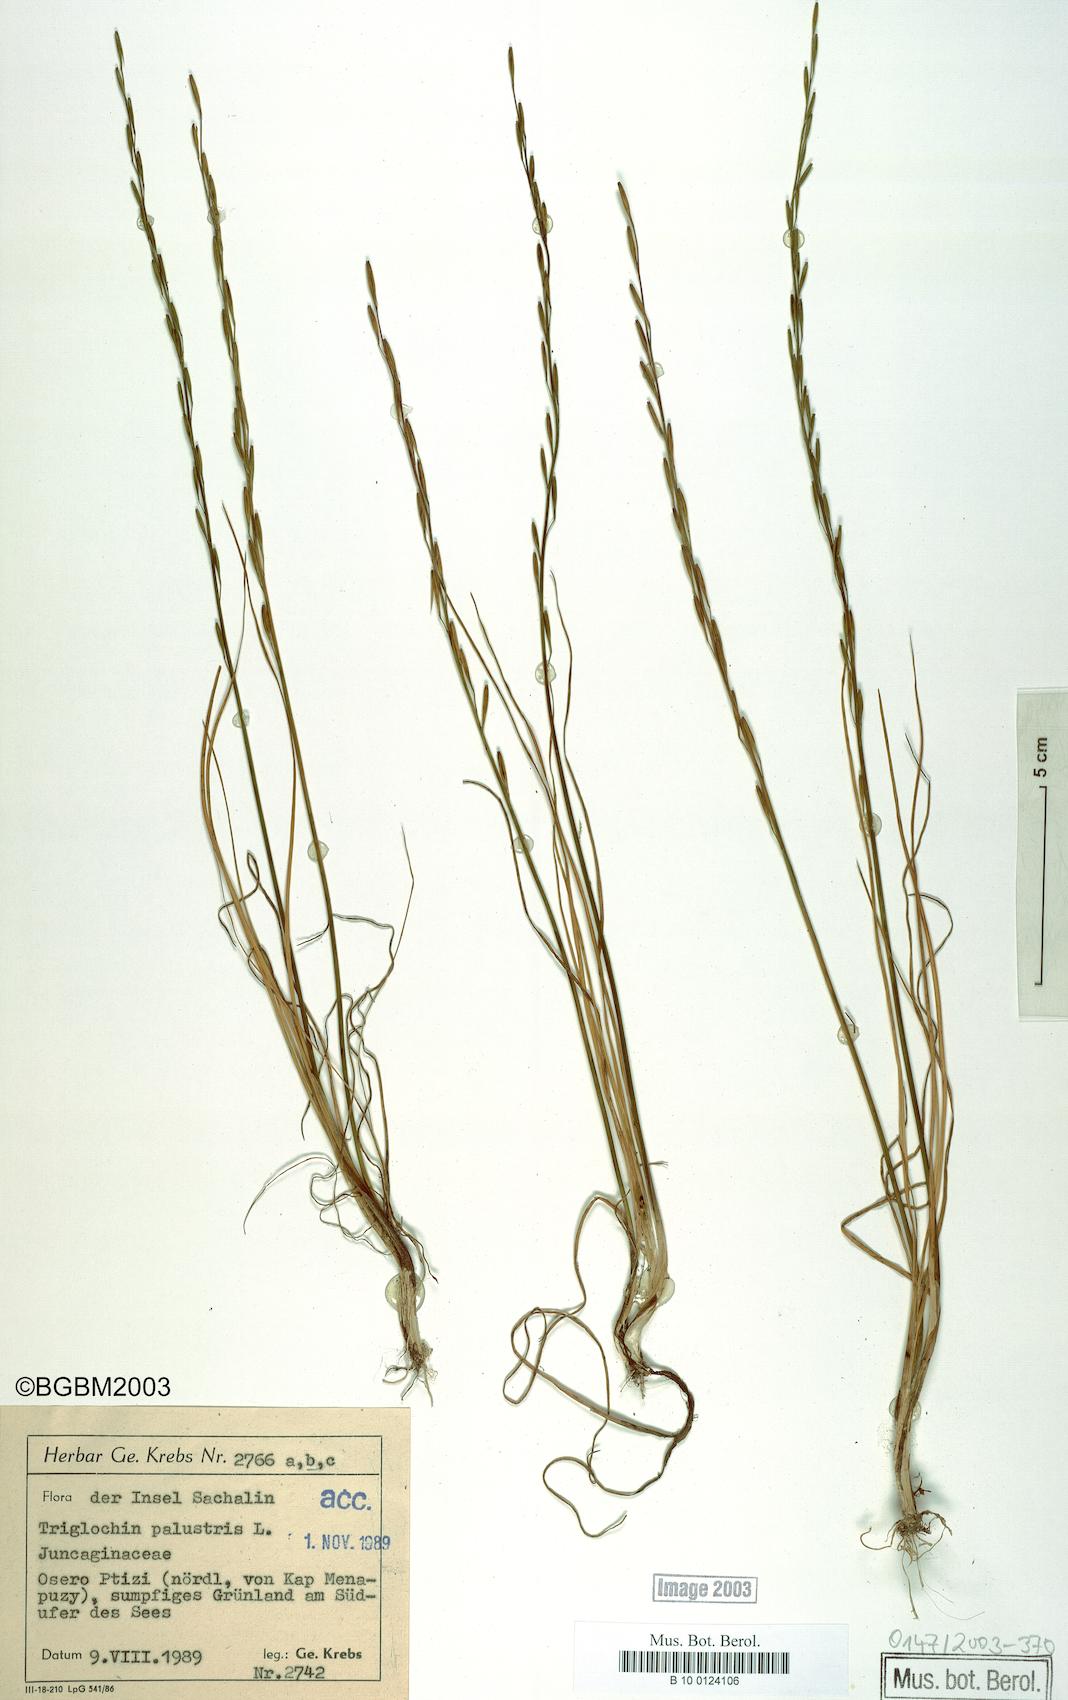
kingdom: Plantae
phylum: Tracheophyta
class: Liliopsida
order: Alismatales
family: Juncaginaceae
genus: Triglochin
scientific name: Triglochin palustris
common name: Marsh arrowgrass
